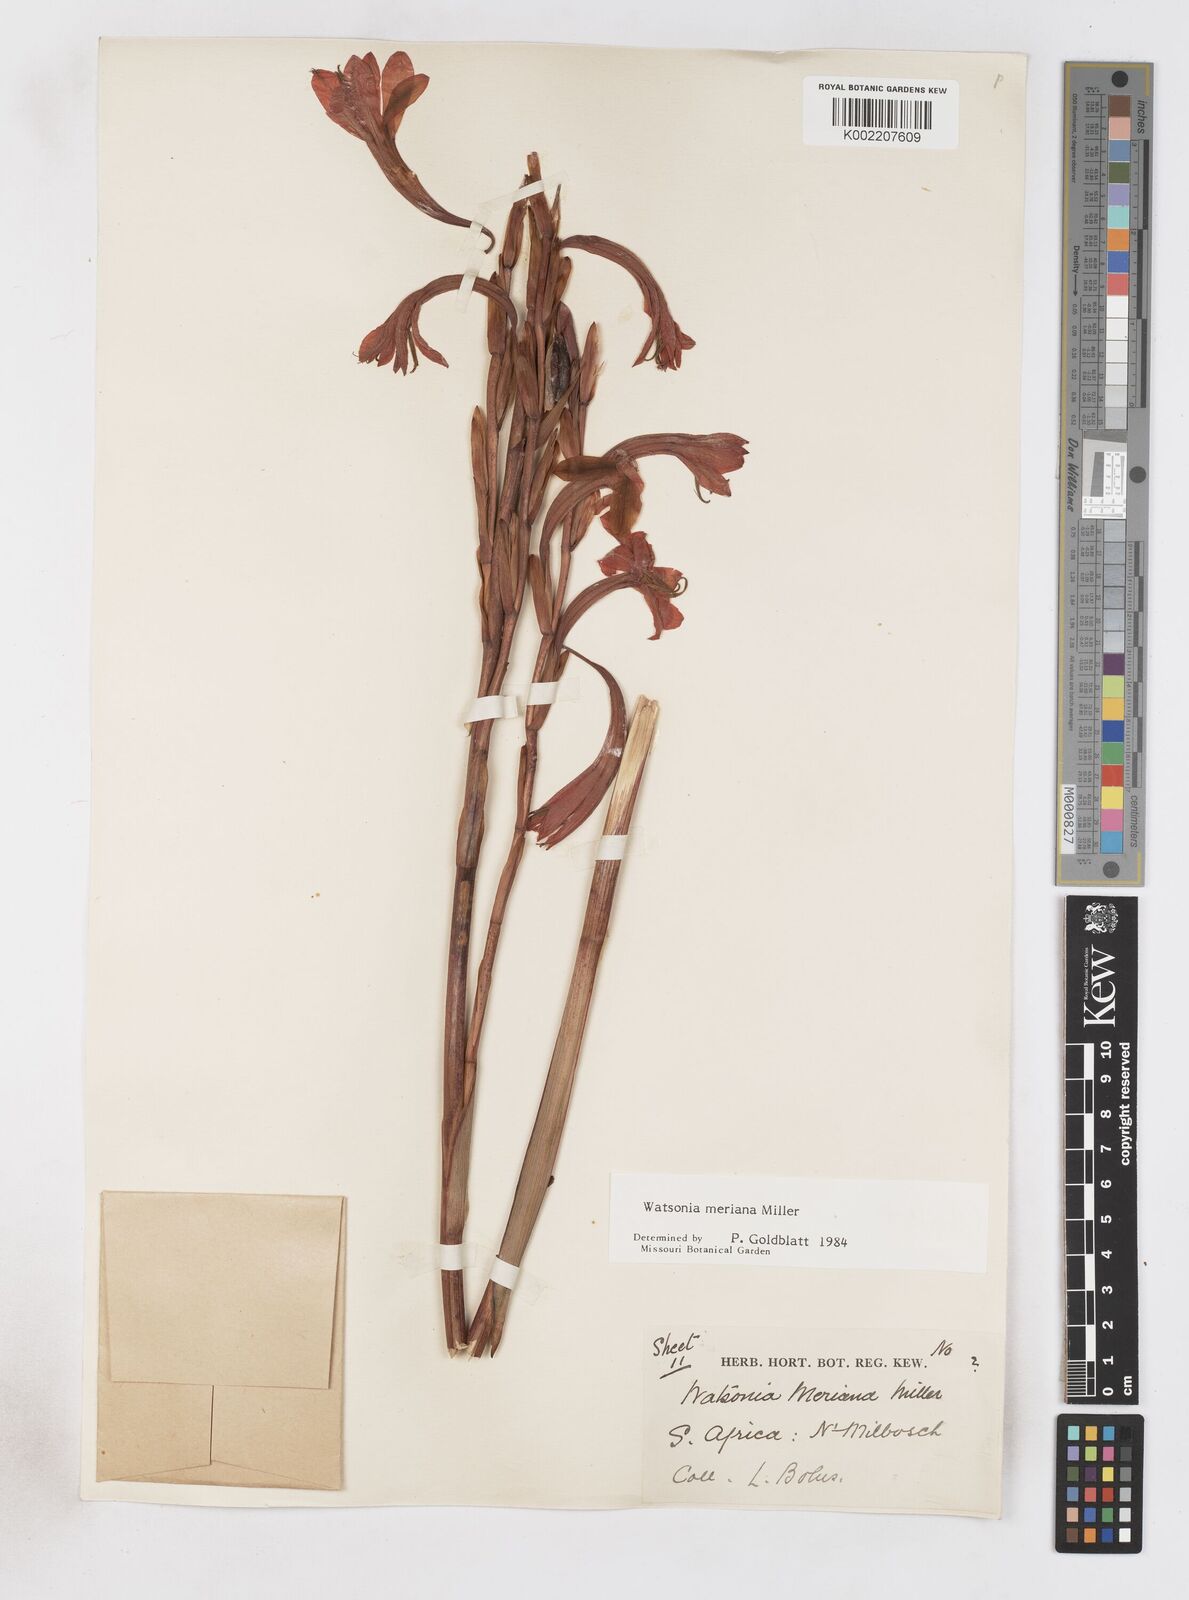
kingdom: Plantae
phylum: Tracheophyta
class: Liliopsida
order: Asparagales
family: Iridaceae
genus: Watsonia
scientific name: Watsonia meriana
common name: Bulbil bugle-lily
